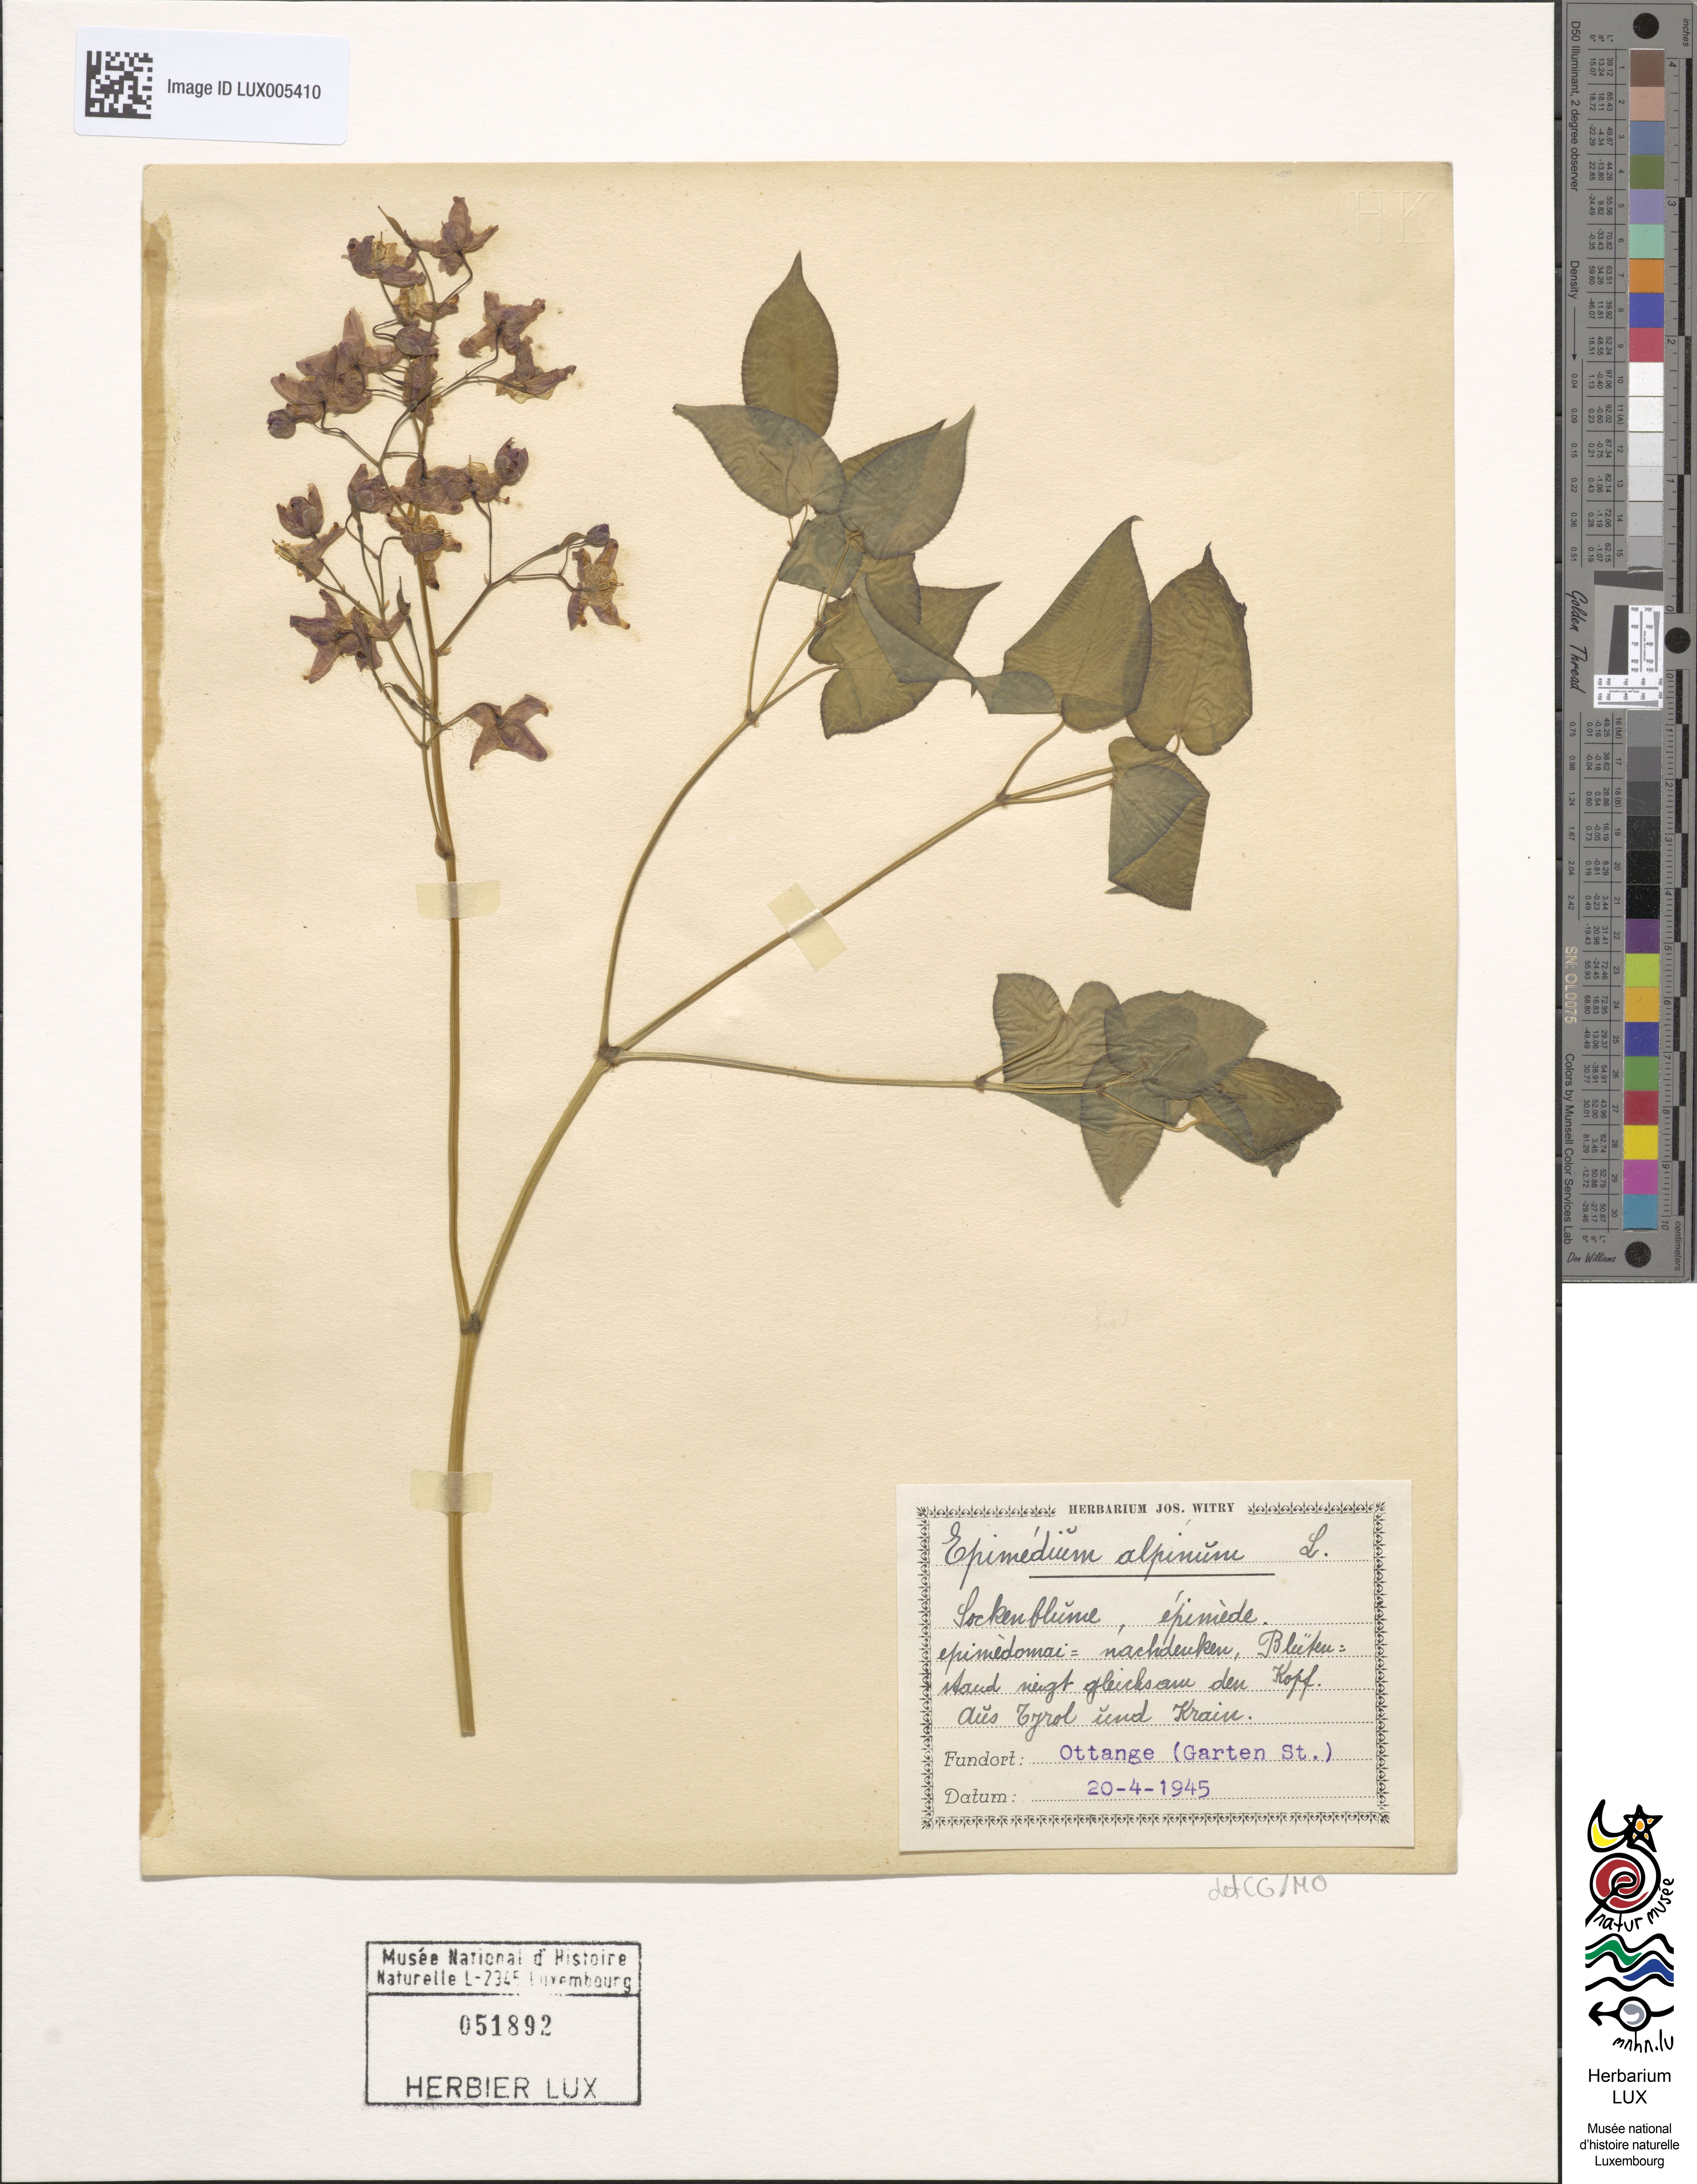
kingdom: Plantae
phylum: Tracheophyta
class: Magnoliopsida
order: Ranunculales
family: Berberidaceae
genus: Epimedium
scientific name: Epimedium alpinum
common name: Barrenwort
